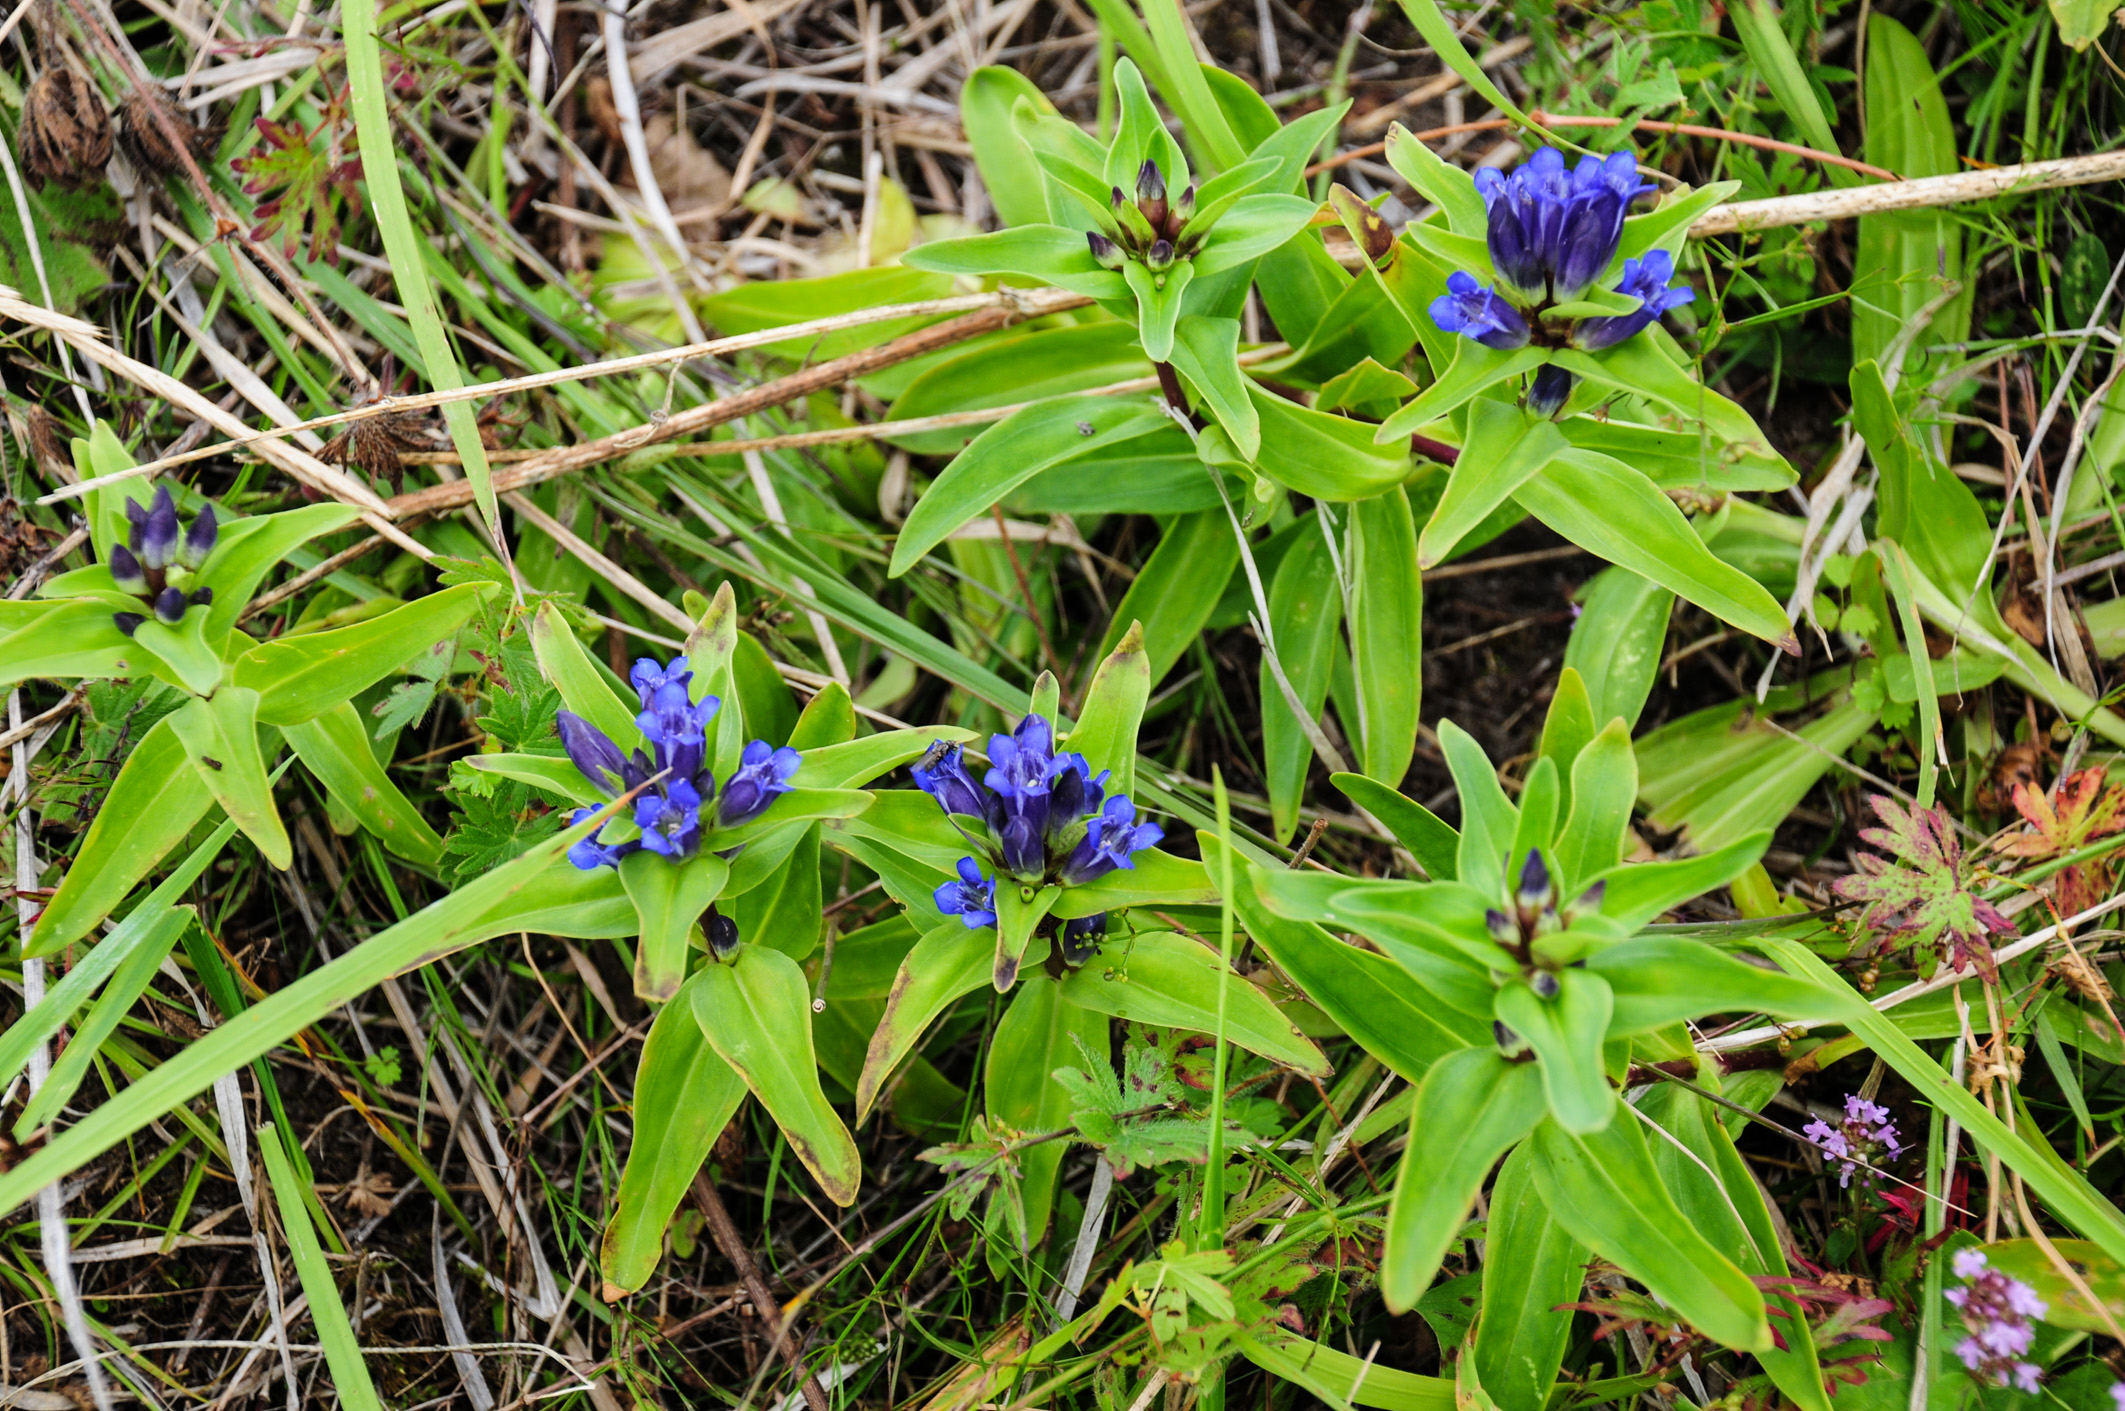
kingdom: Plantae
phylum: Tracheophyta
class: Magnoliopsida
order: Gentianales
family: Gentianaceae
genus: Gentiana
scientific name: Gentiana cruciata
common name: Cross gentian
